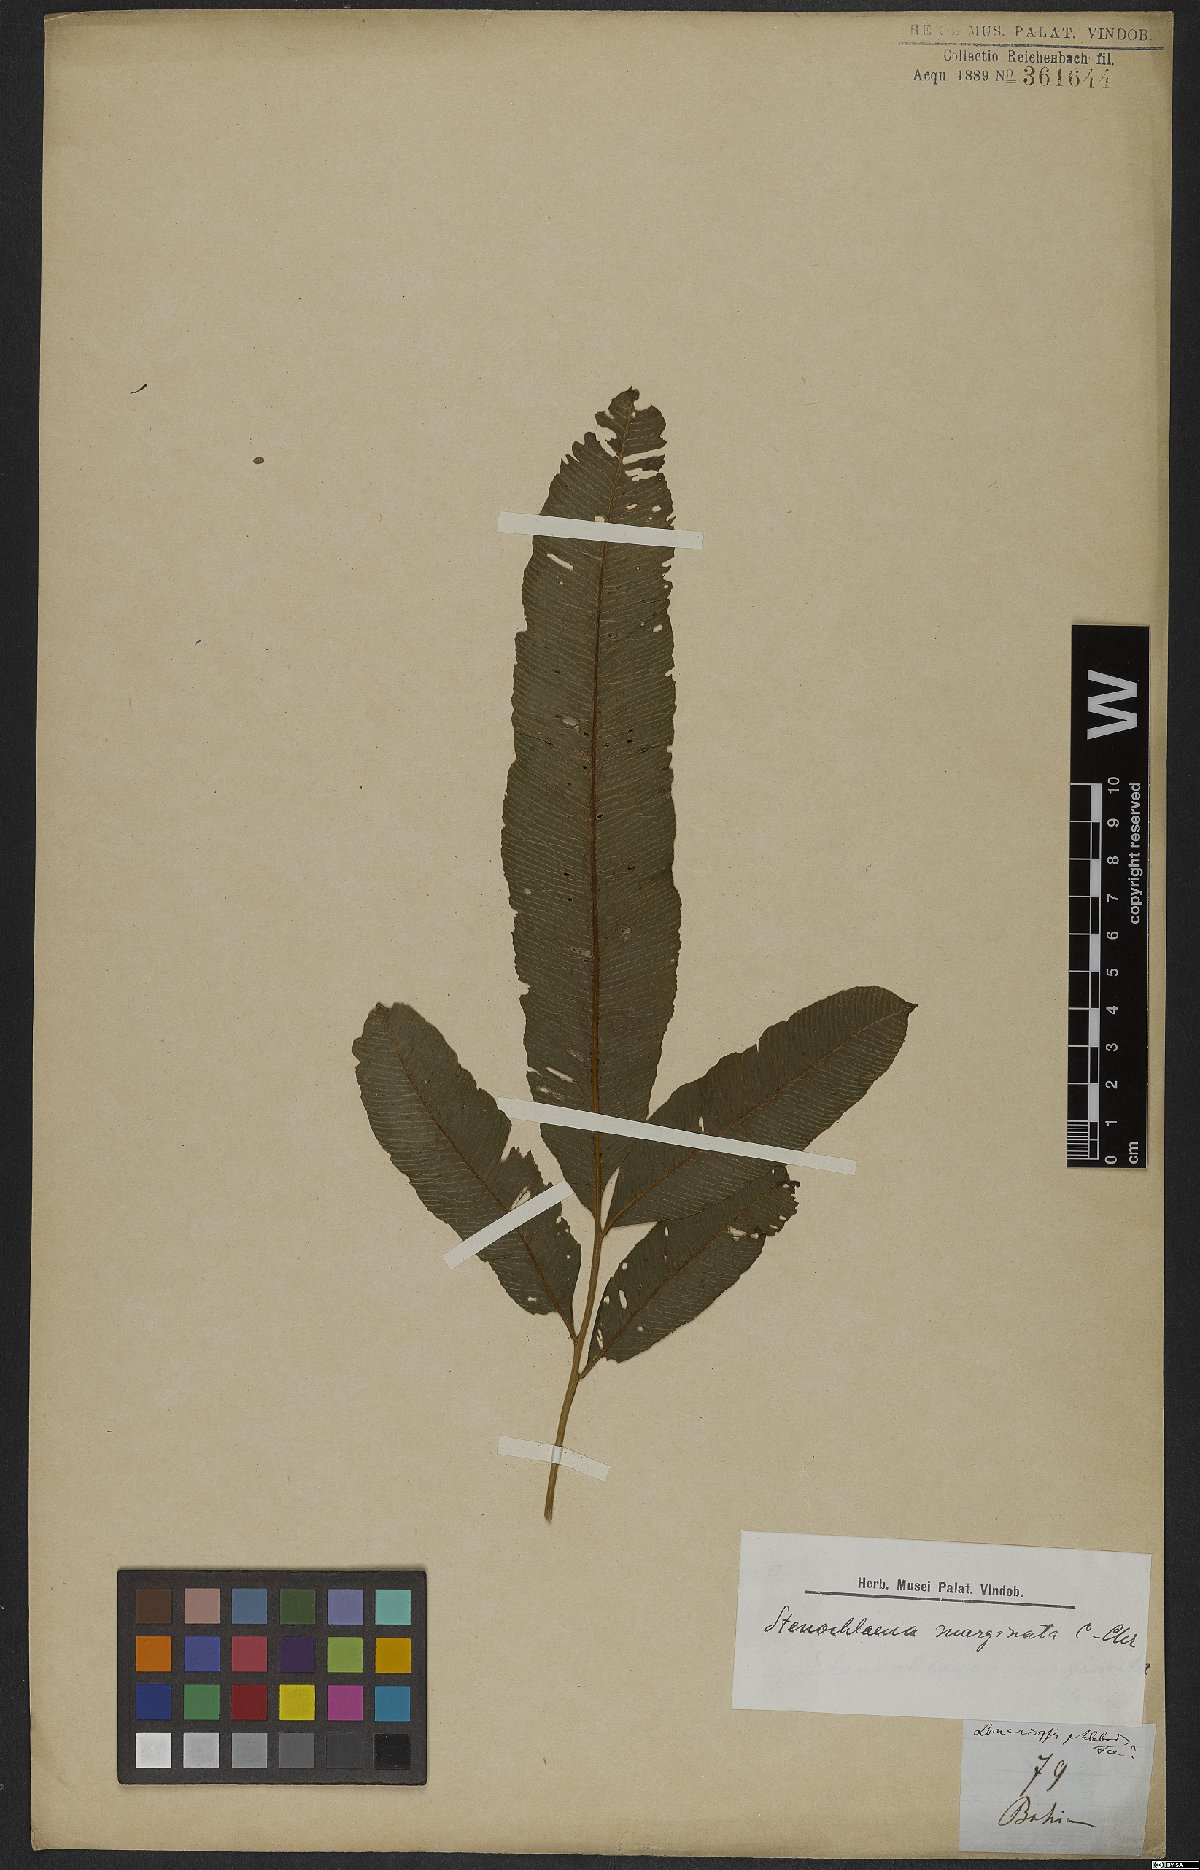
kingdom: Plantae
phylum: Tracheophyta
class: Polypodiopsida
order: Polypodiales
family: Lomariopsidaceae
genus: Lomariopsis
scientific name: Lomariopsis marginata
